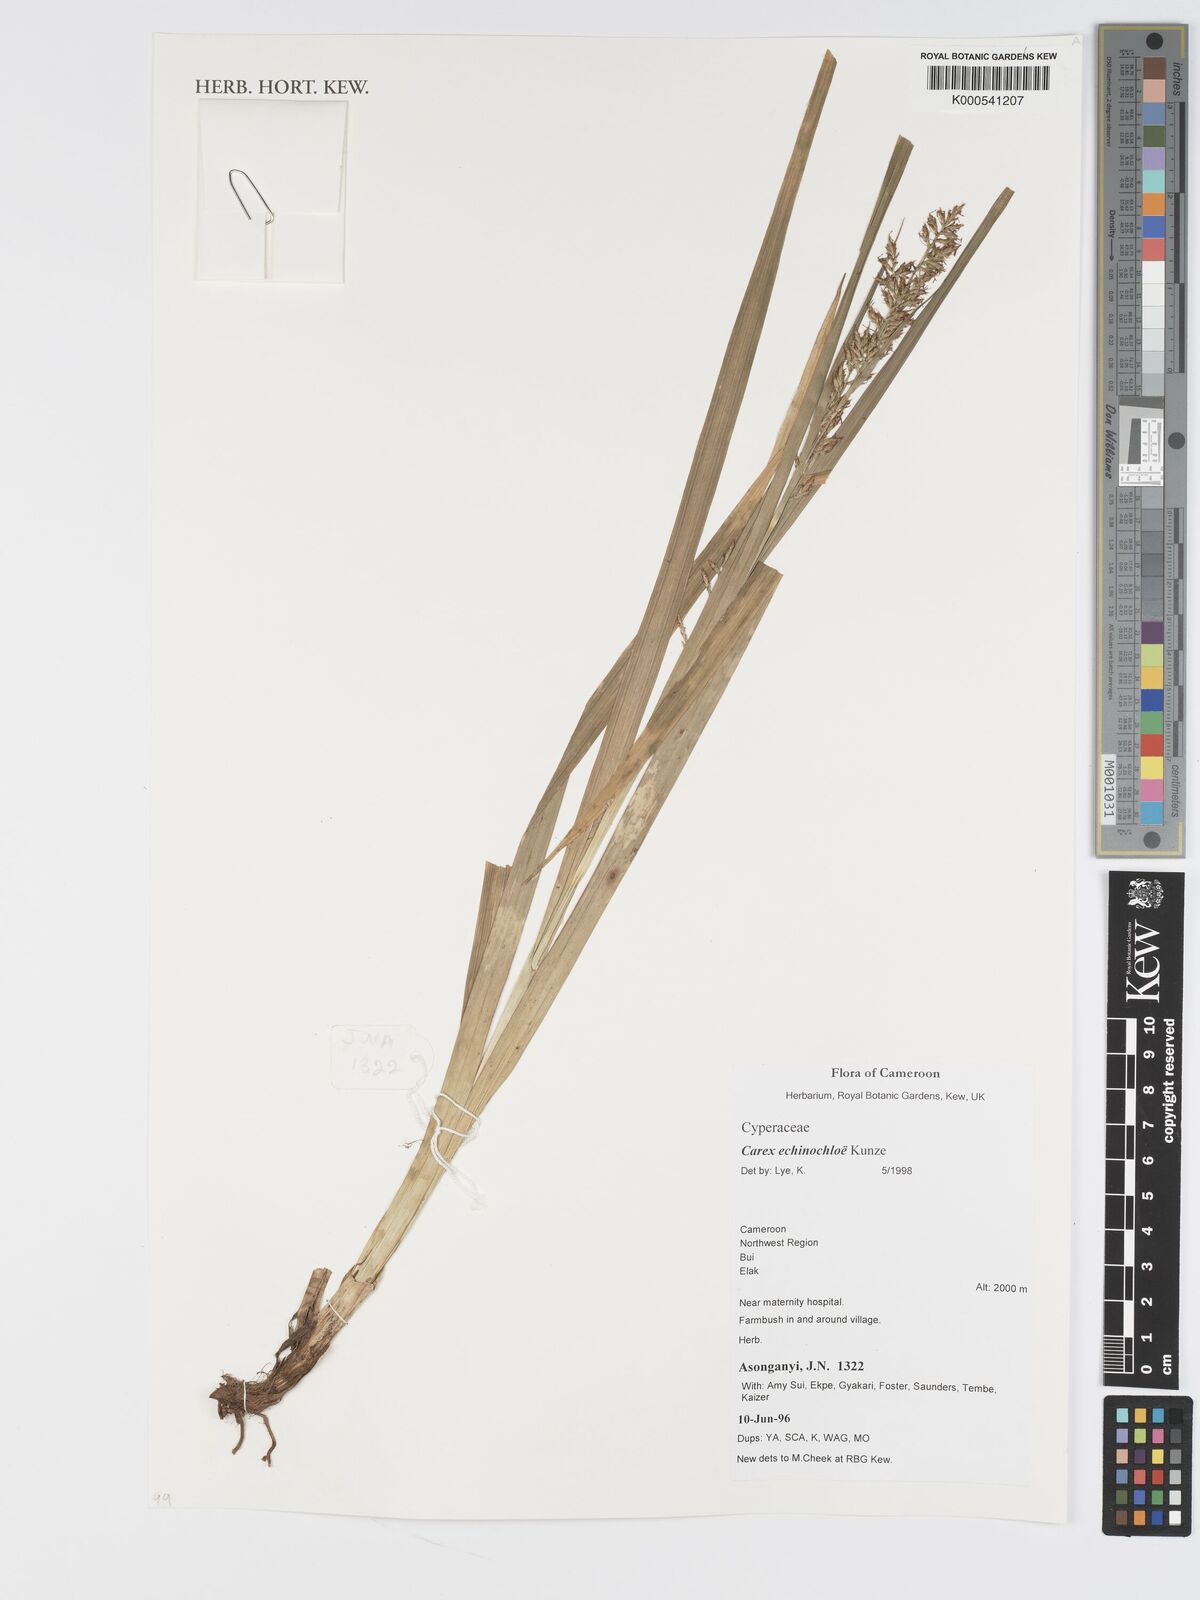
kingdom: Plantae
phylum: Tracheophyta
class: Liliopsida
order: Poales
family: Cyperaceae
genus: Carex
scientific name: Carex
